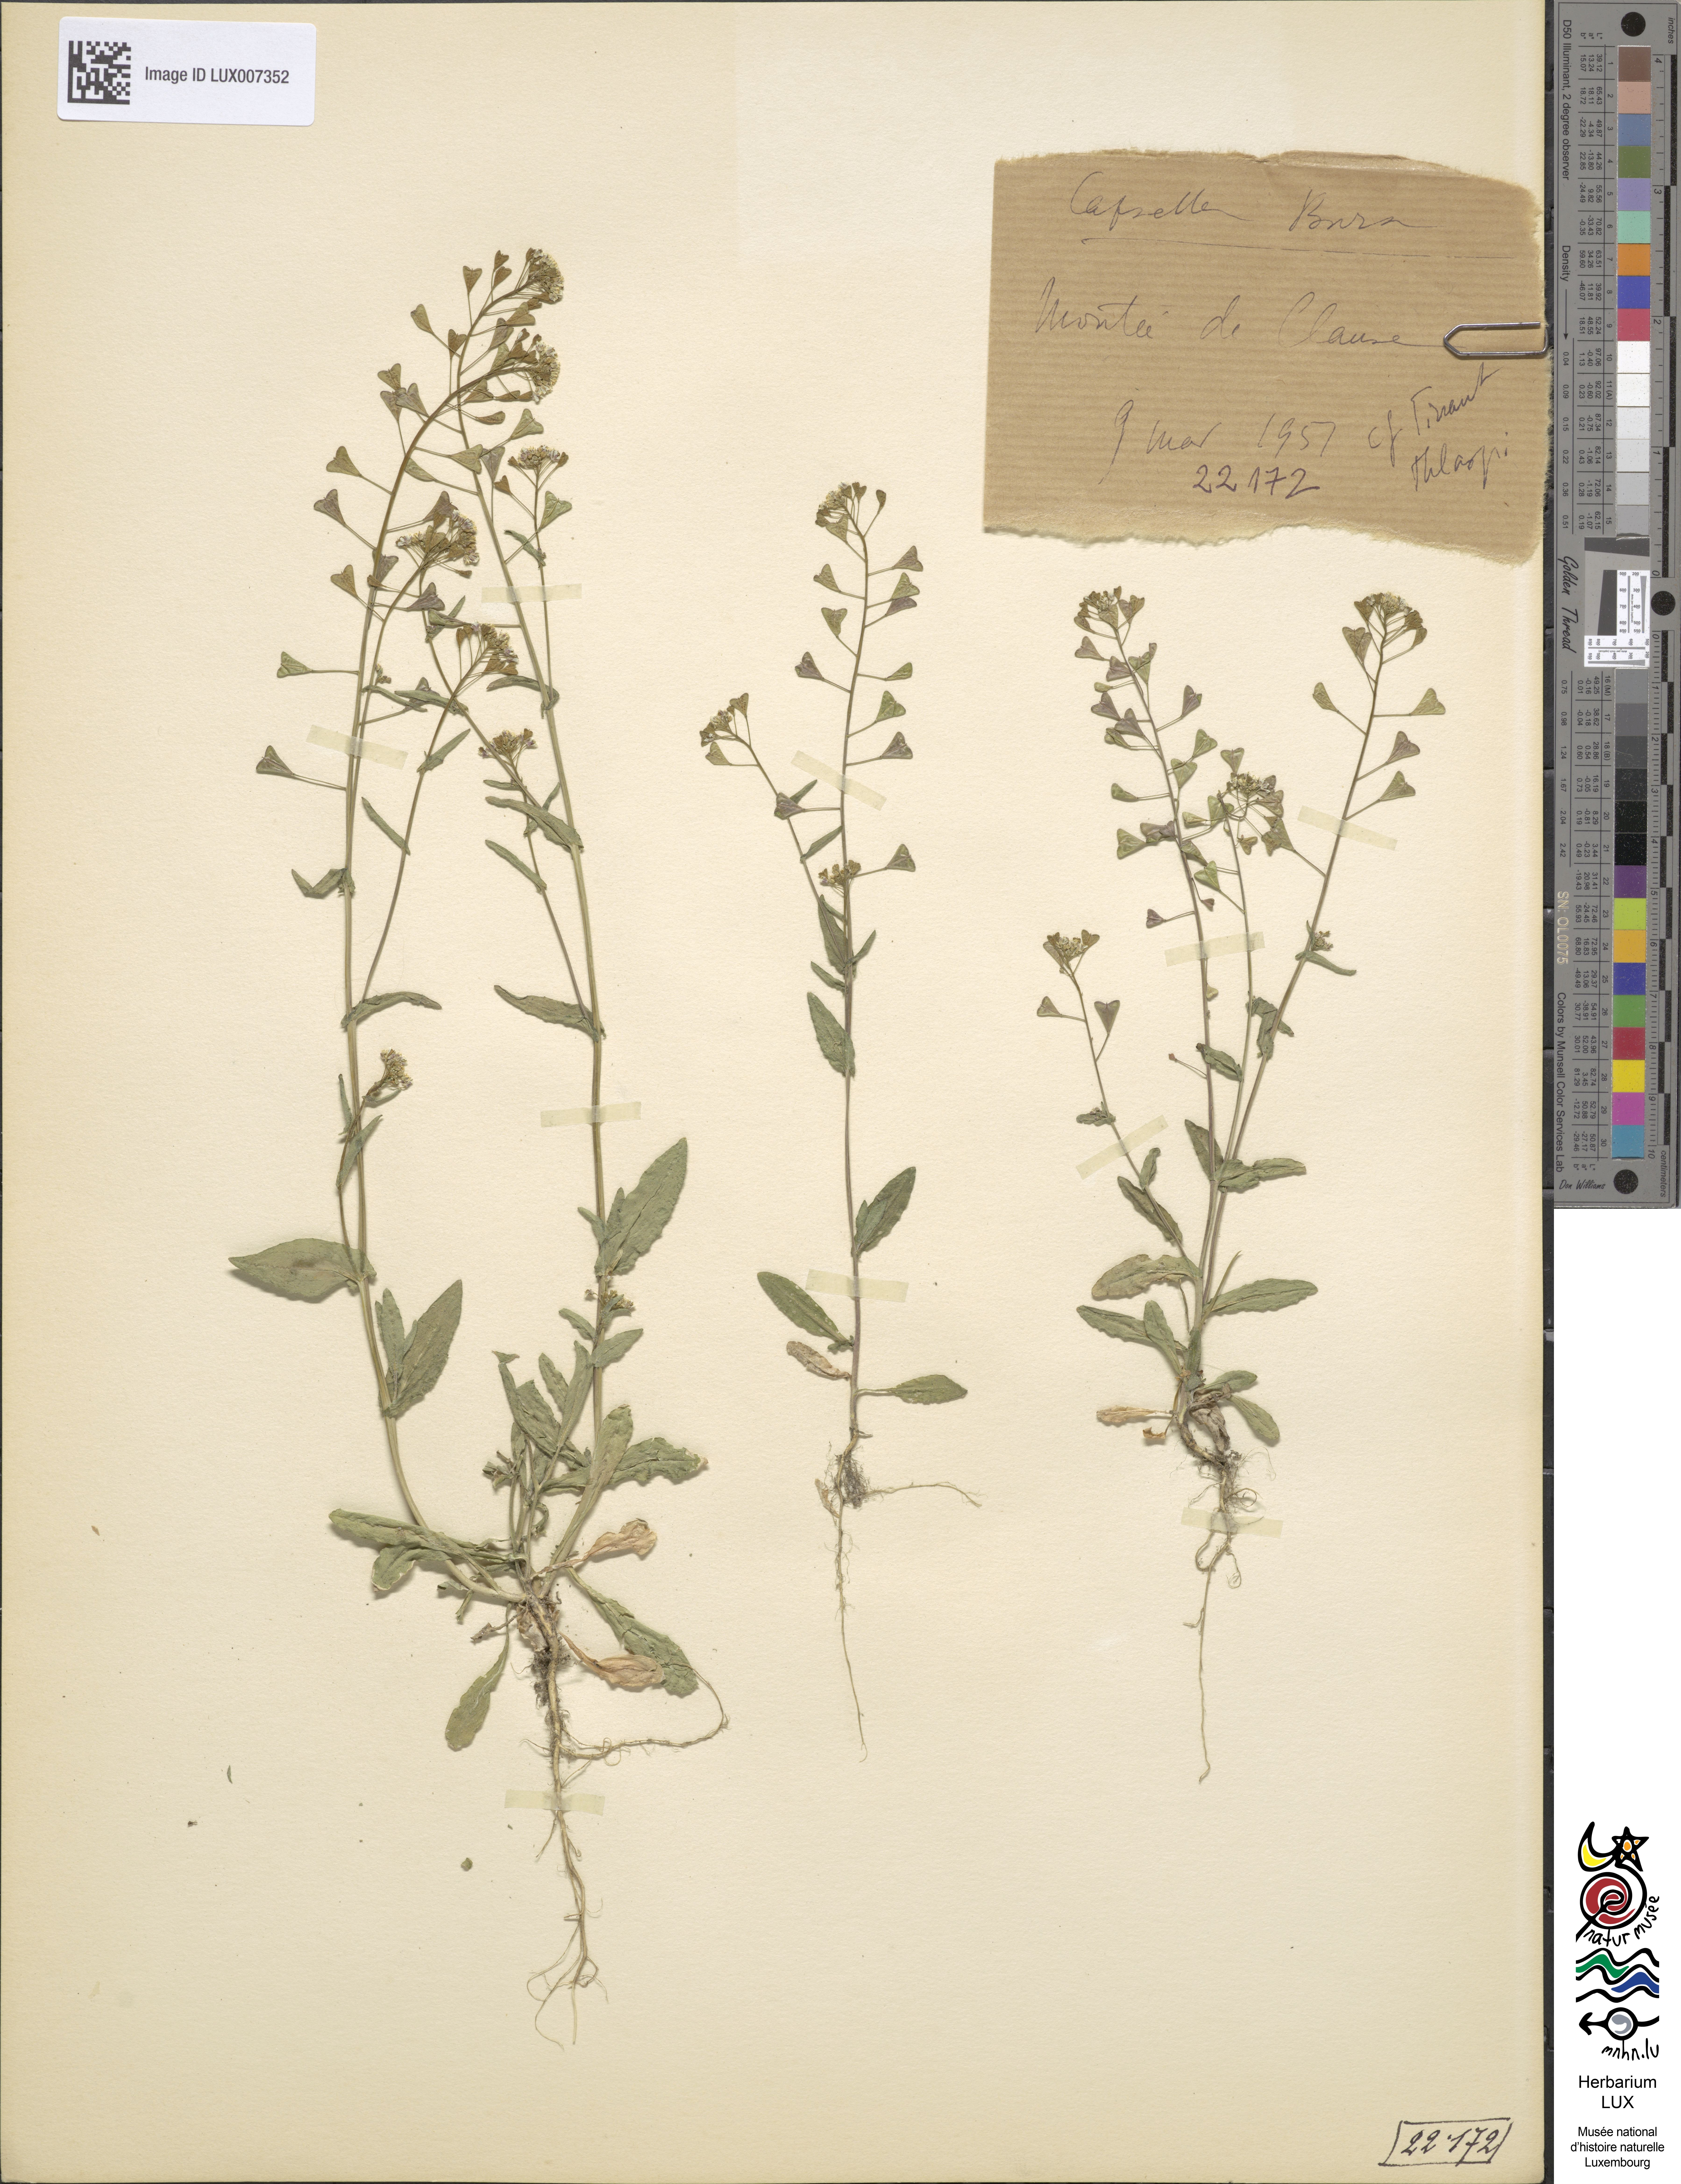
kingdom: Plantae
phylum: Tracheophyta
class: Magnoliopsida
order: Brassicales
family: Brassicaceae
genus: Capsella
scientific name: Capsella bursa-pastoris
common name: Shepherd's purse
